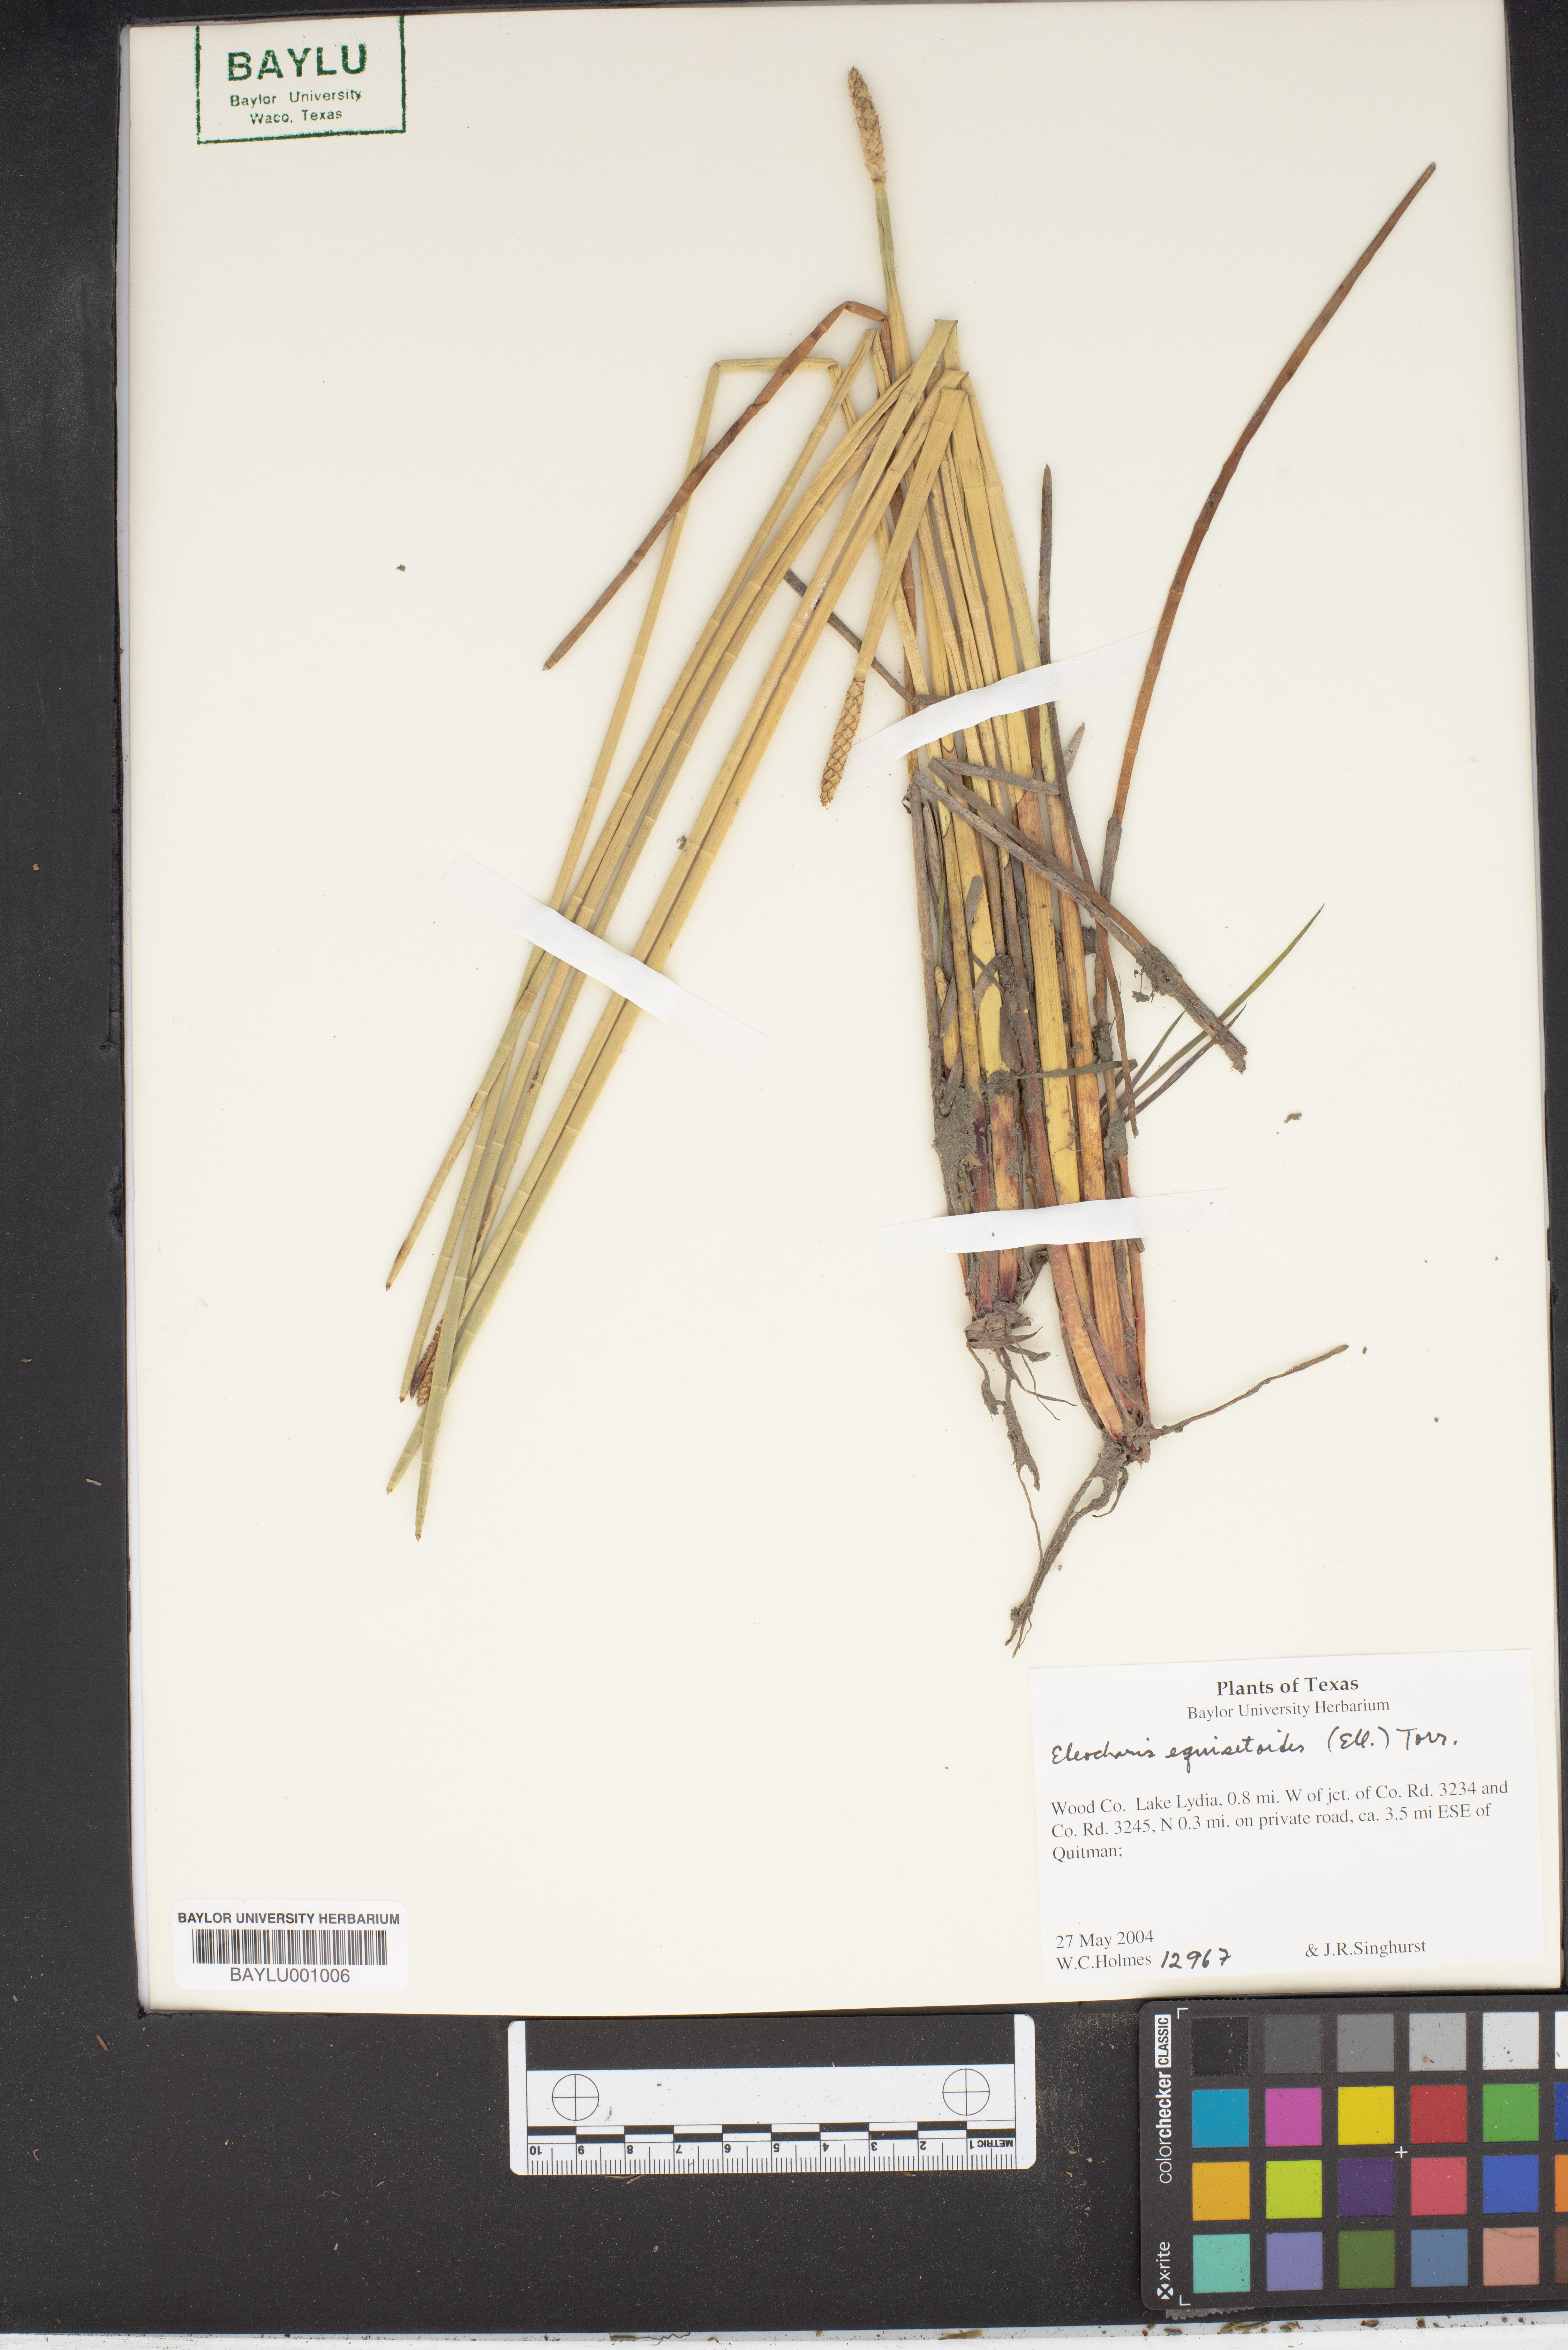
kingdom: Plantae
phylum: Tracheophyta
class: Liliopsida
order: Poales
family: Cyperaceae
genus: Eleocharis
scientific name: Eleocharis equisetoides
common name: Horsetail spike-rush
